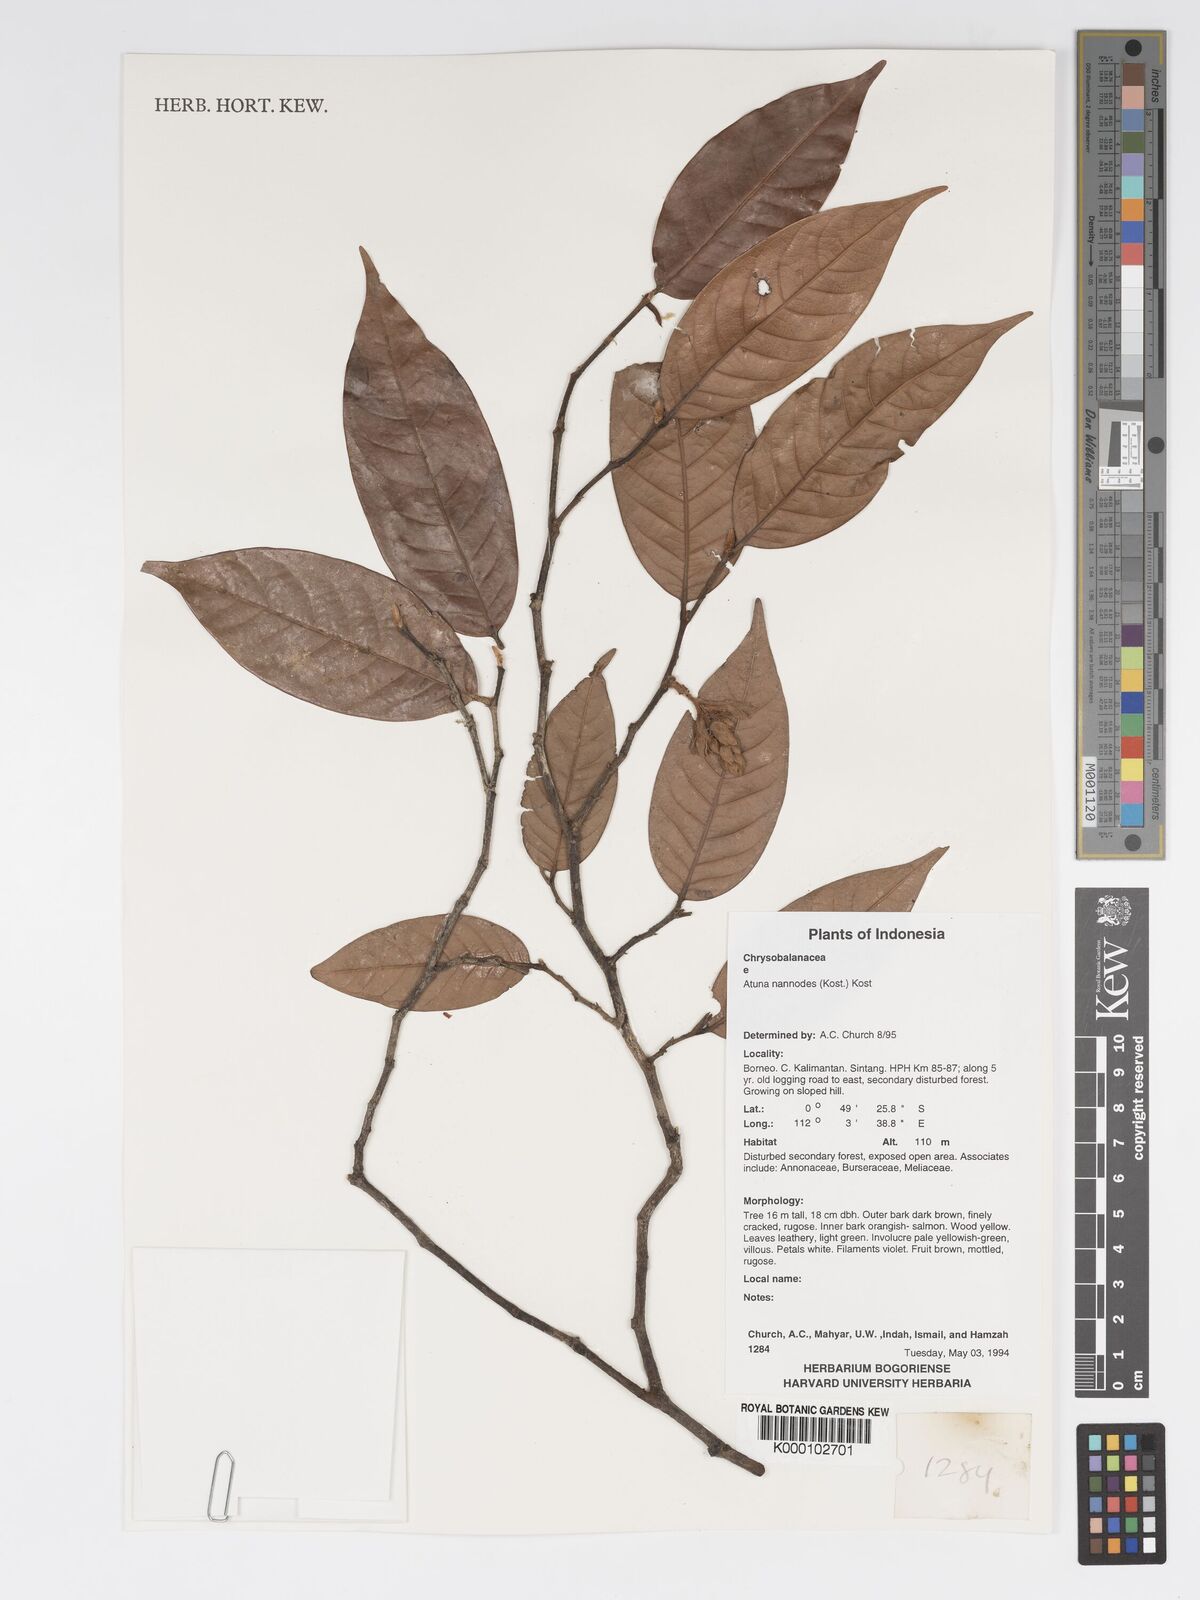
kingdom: Plantae
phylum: Tracheophyta
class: Magnoliopsida
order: Malpighiales
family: Chrysobalanaceae
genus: Atuna
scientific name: Atuna nannodes
